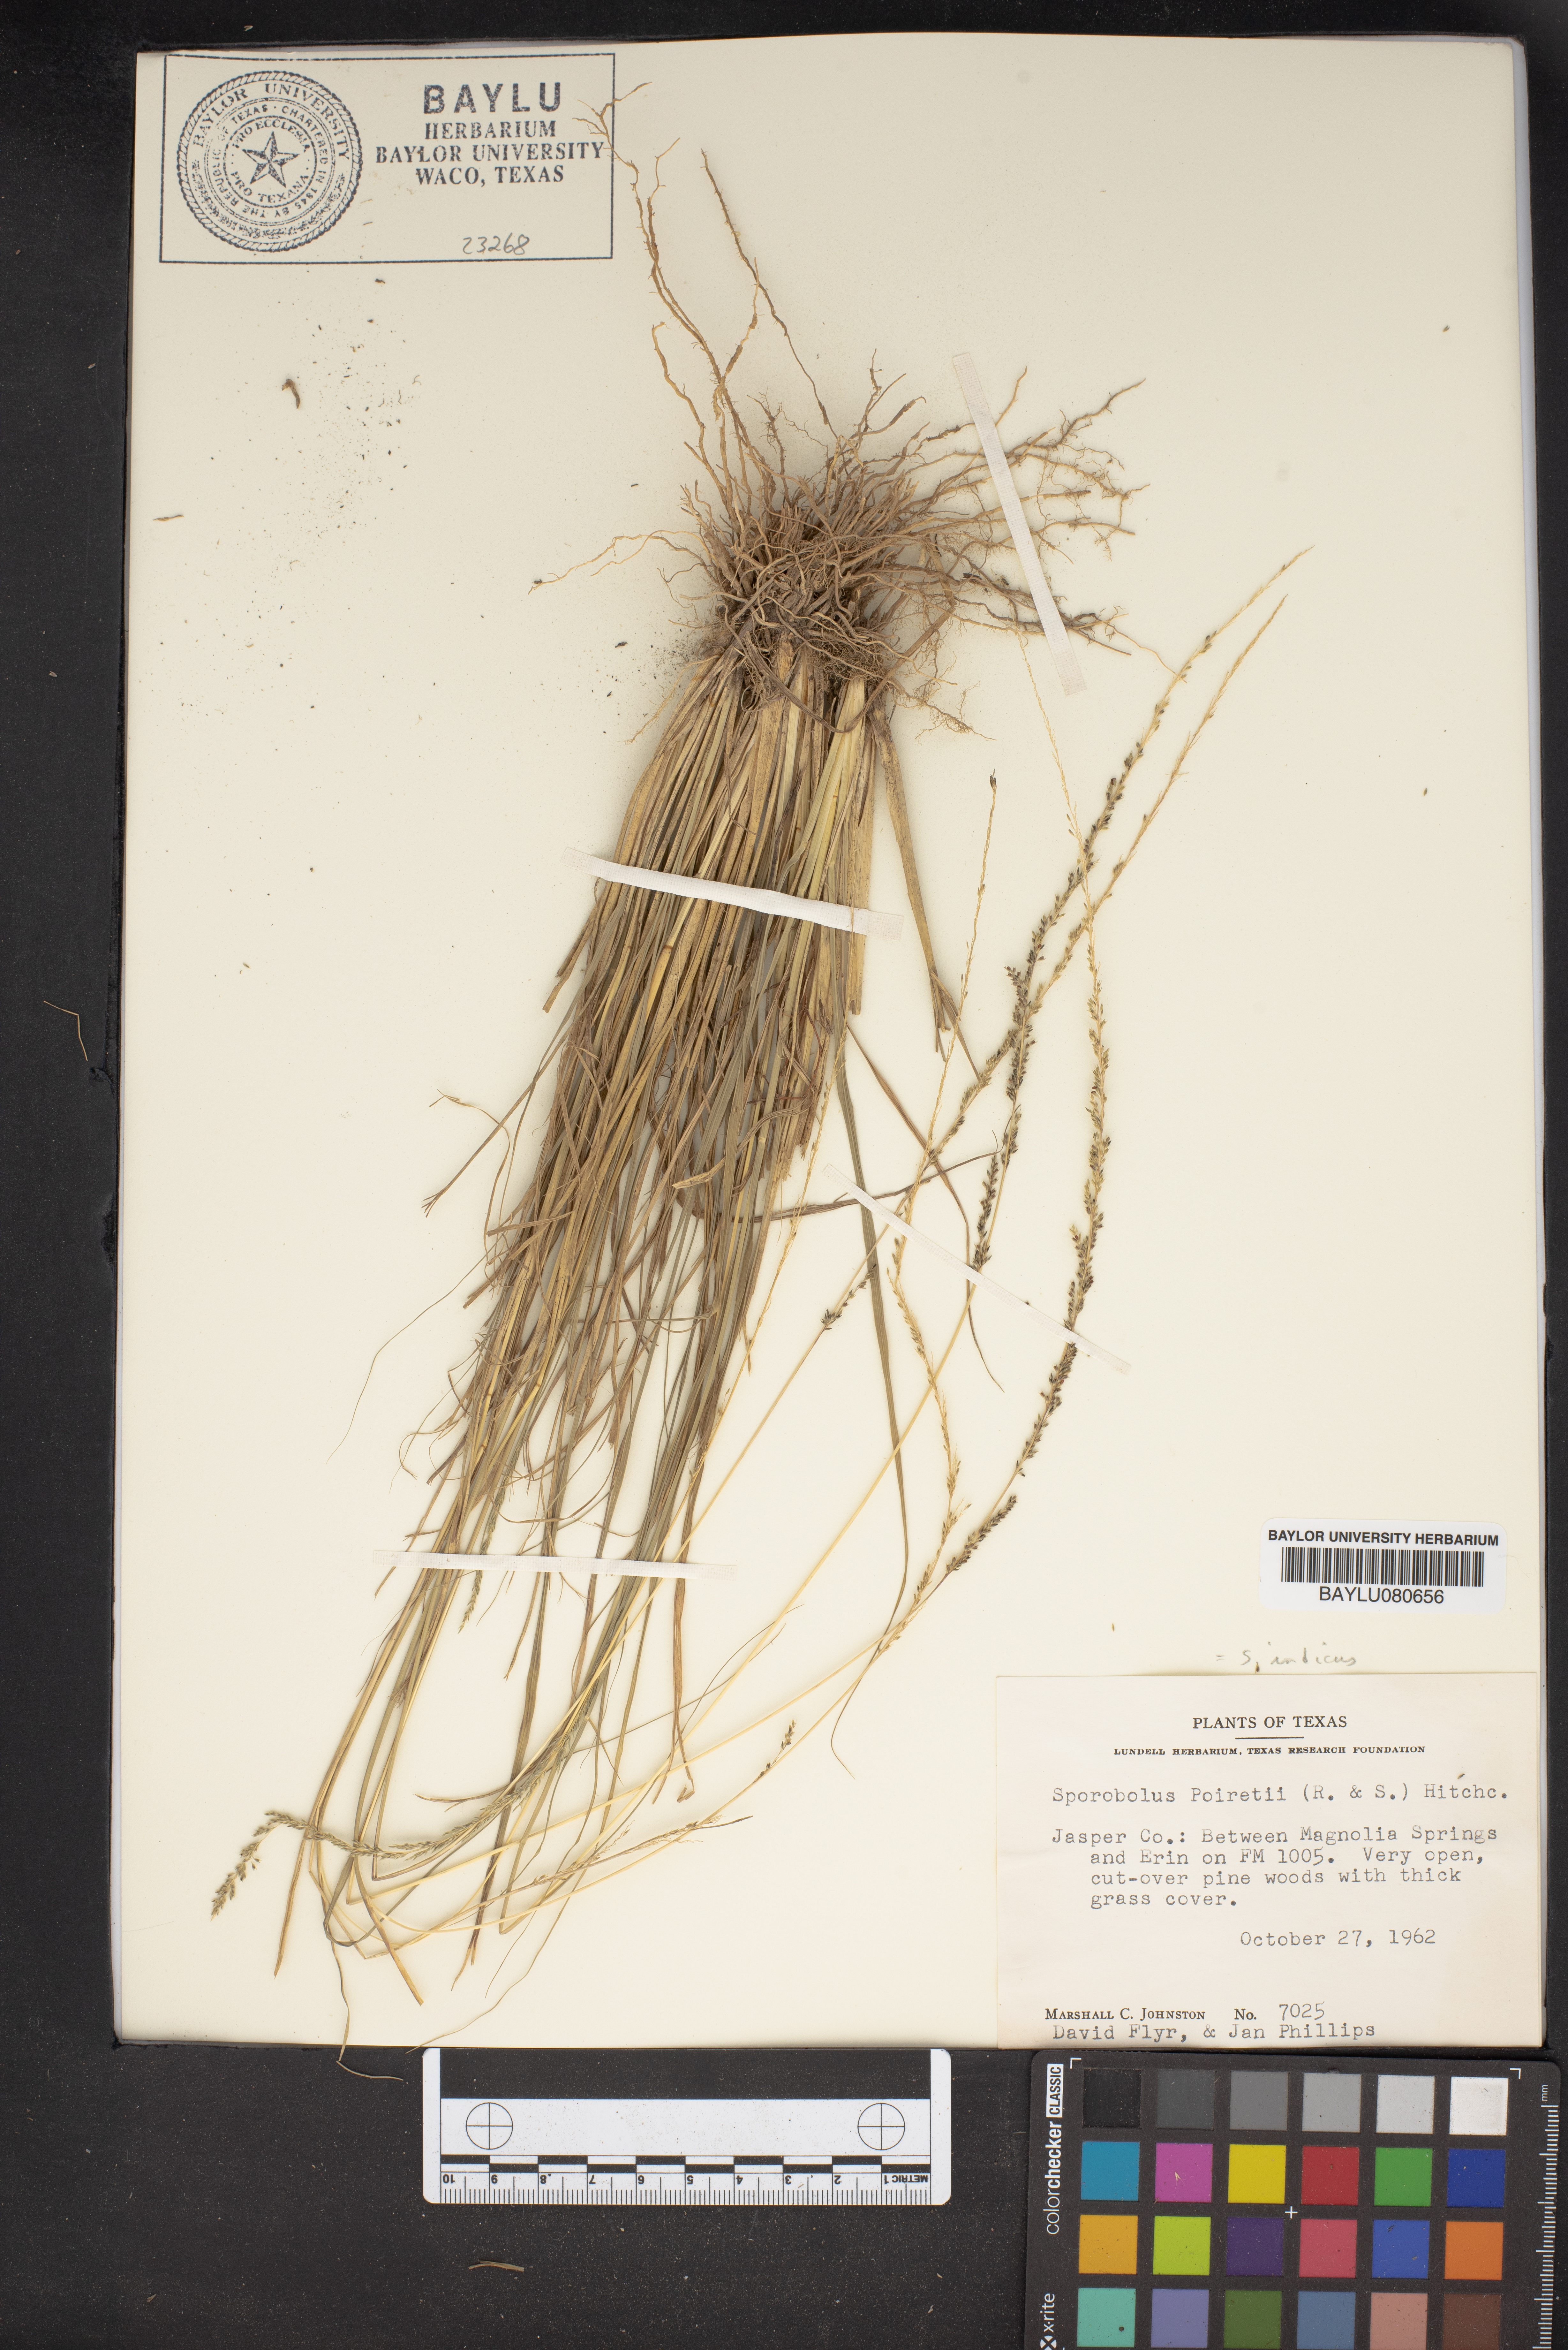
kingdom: Plantae
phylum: Tracheophyta
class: Liliopsida
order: Poales
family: Poaceae
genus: Sporobolus
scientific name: Sporobolus junceus
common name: Lizard grass
